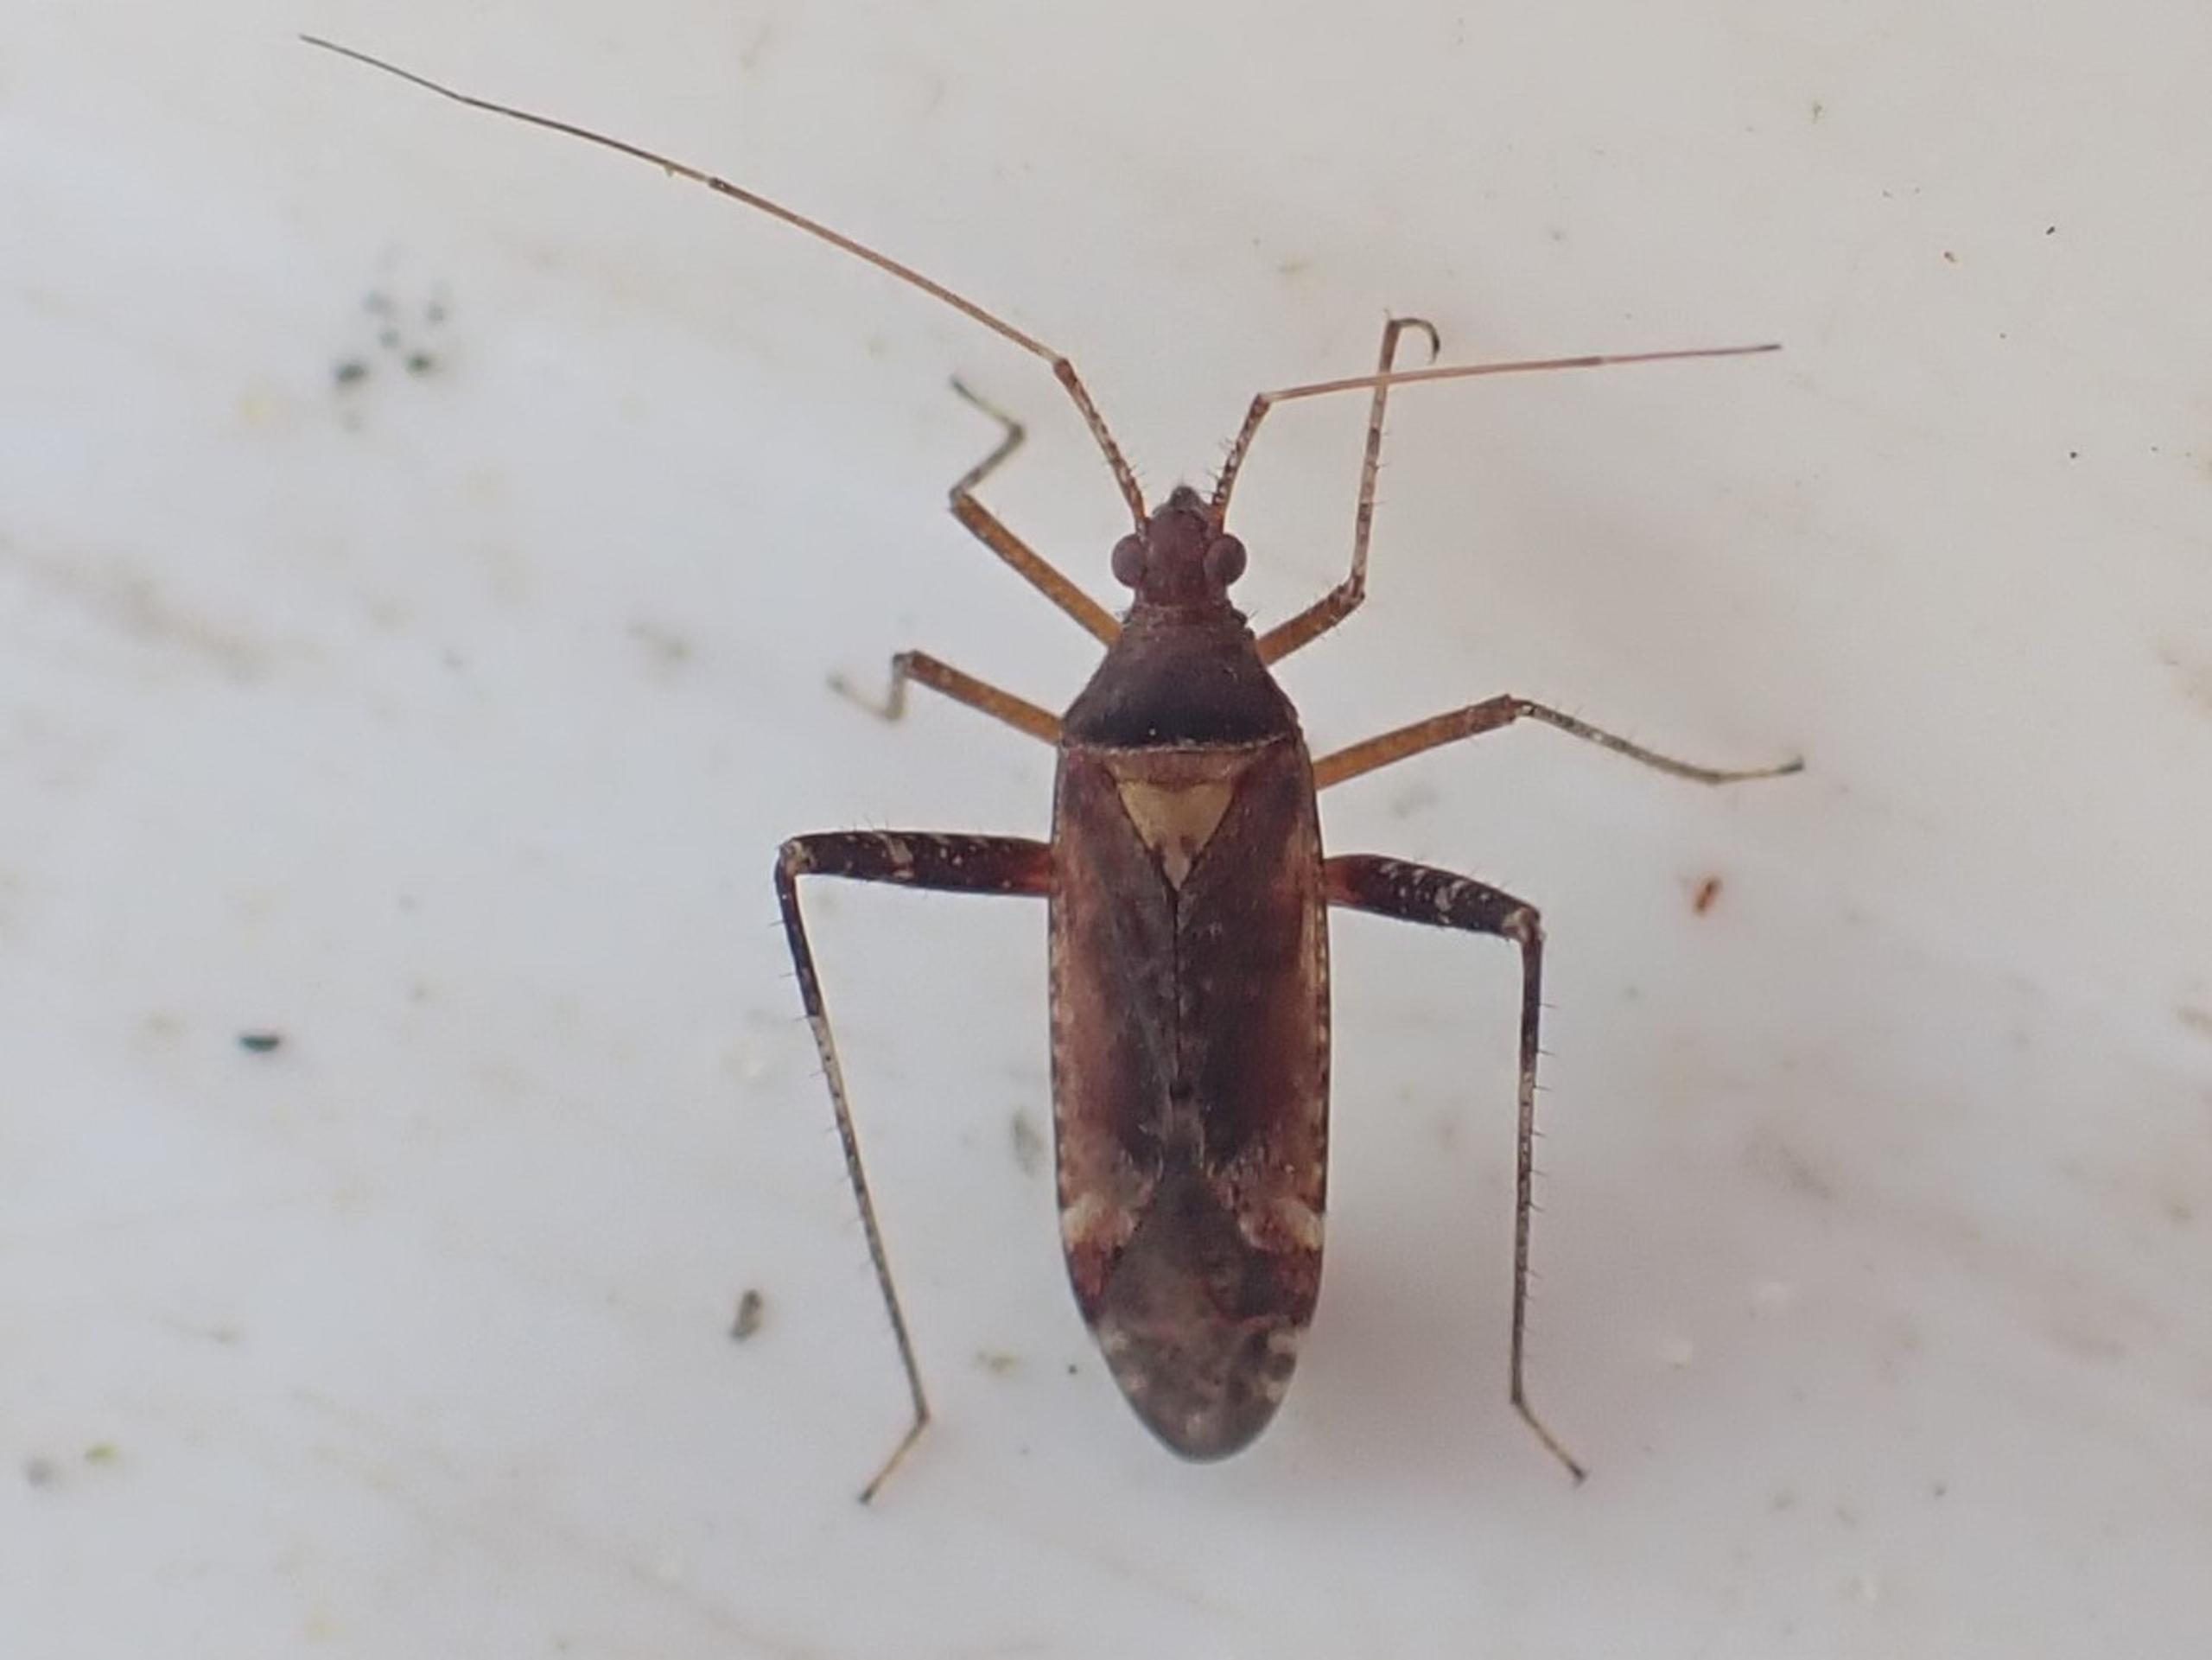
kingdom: Animalia
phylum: Arthropoda
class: Insecta
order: Hemiptera
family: Miridae
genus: Phytocoris
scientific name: Phytocoris ulmi
